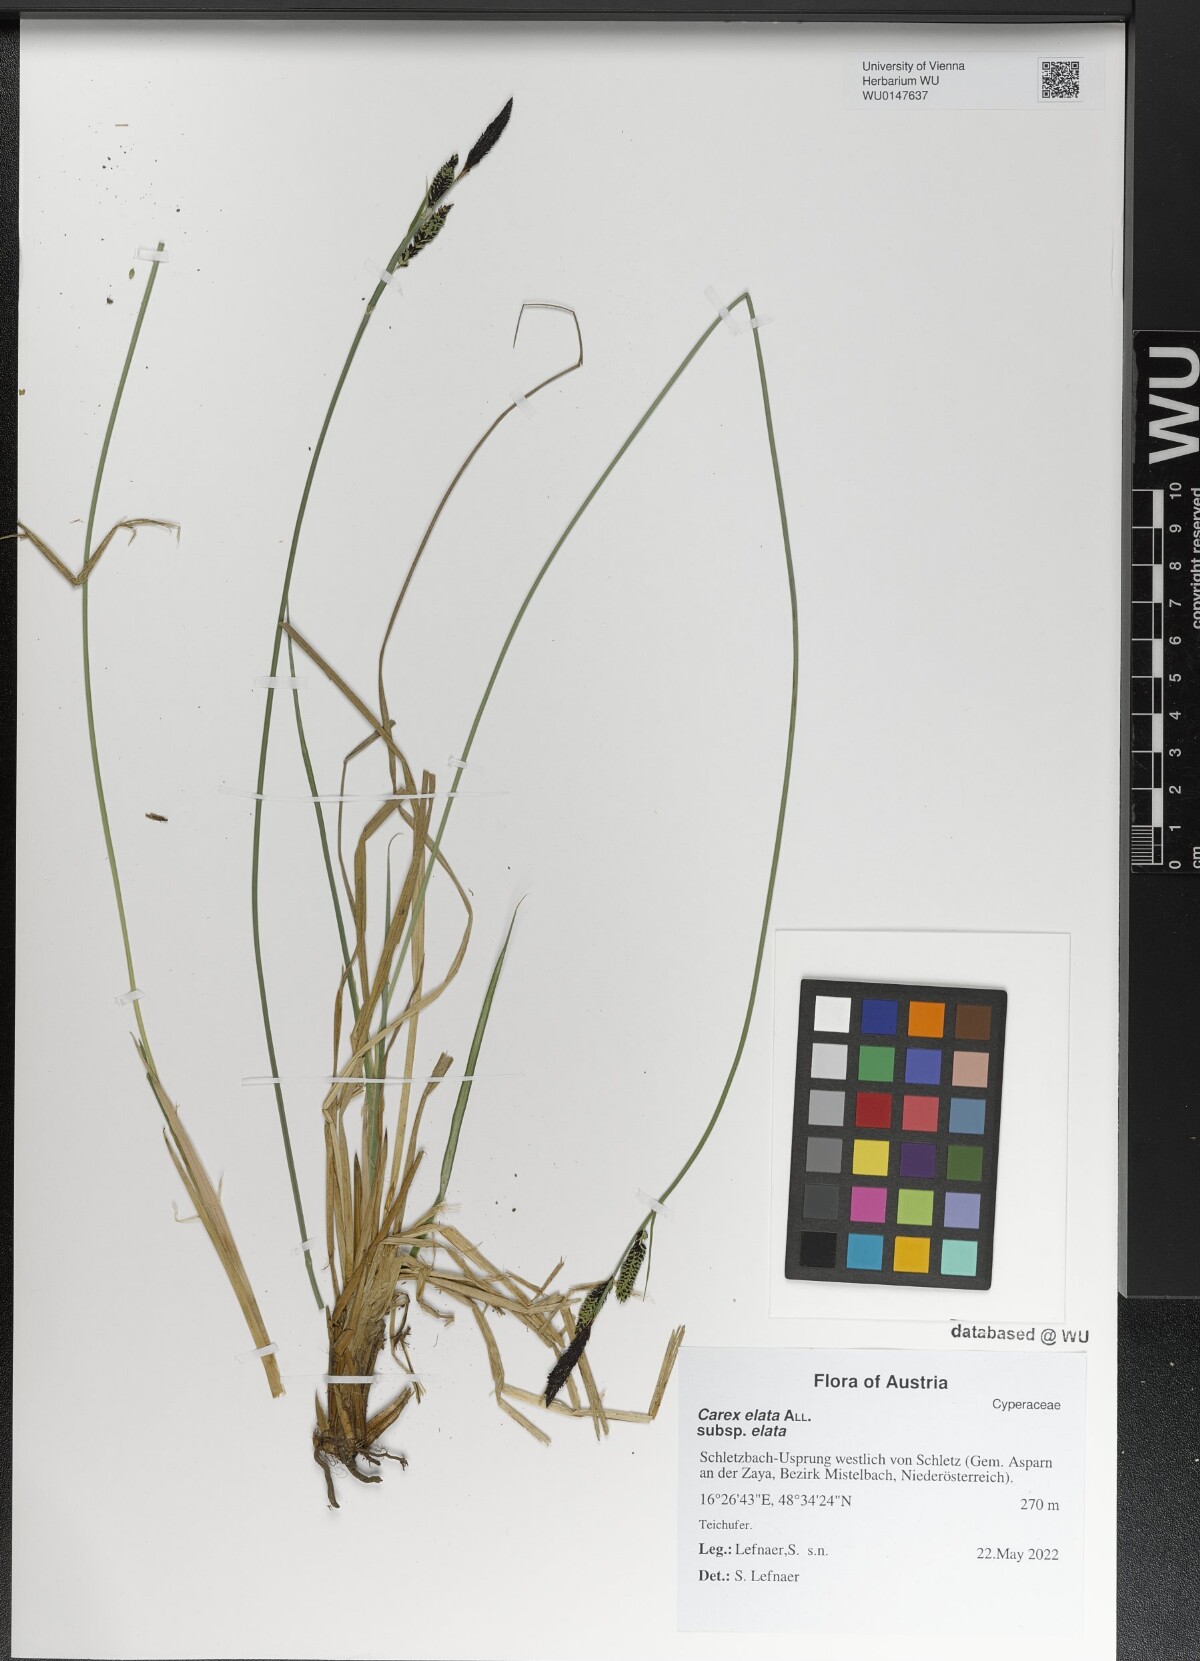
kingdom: Plantae
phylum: Tracheophyta
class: Liliopsida
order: Poales
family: Cyperaceae
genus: Carex
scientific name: Carex elata
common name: Tufted sedge
